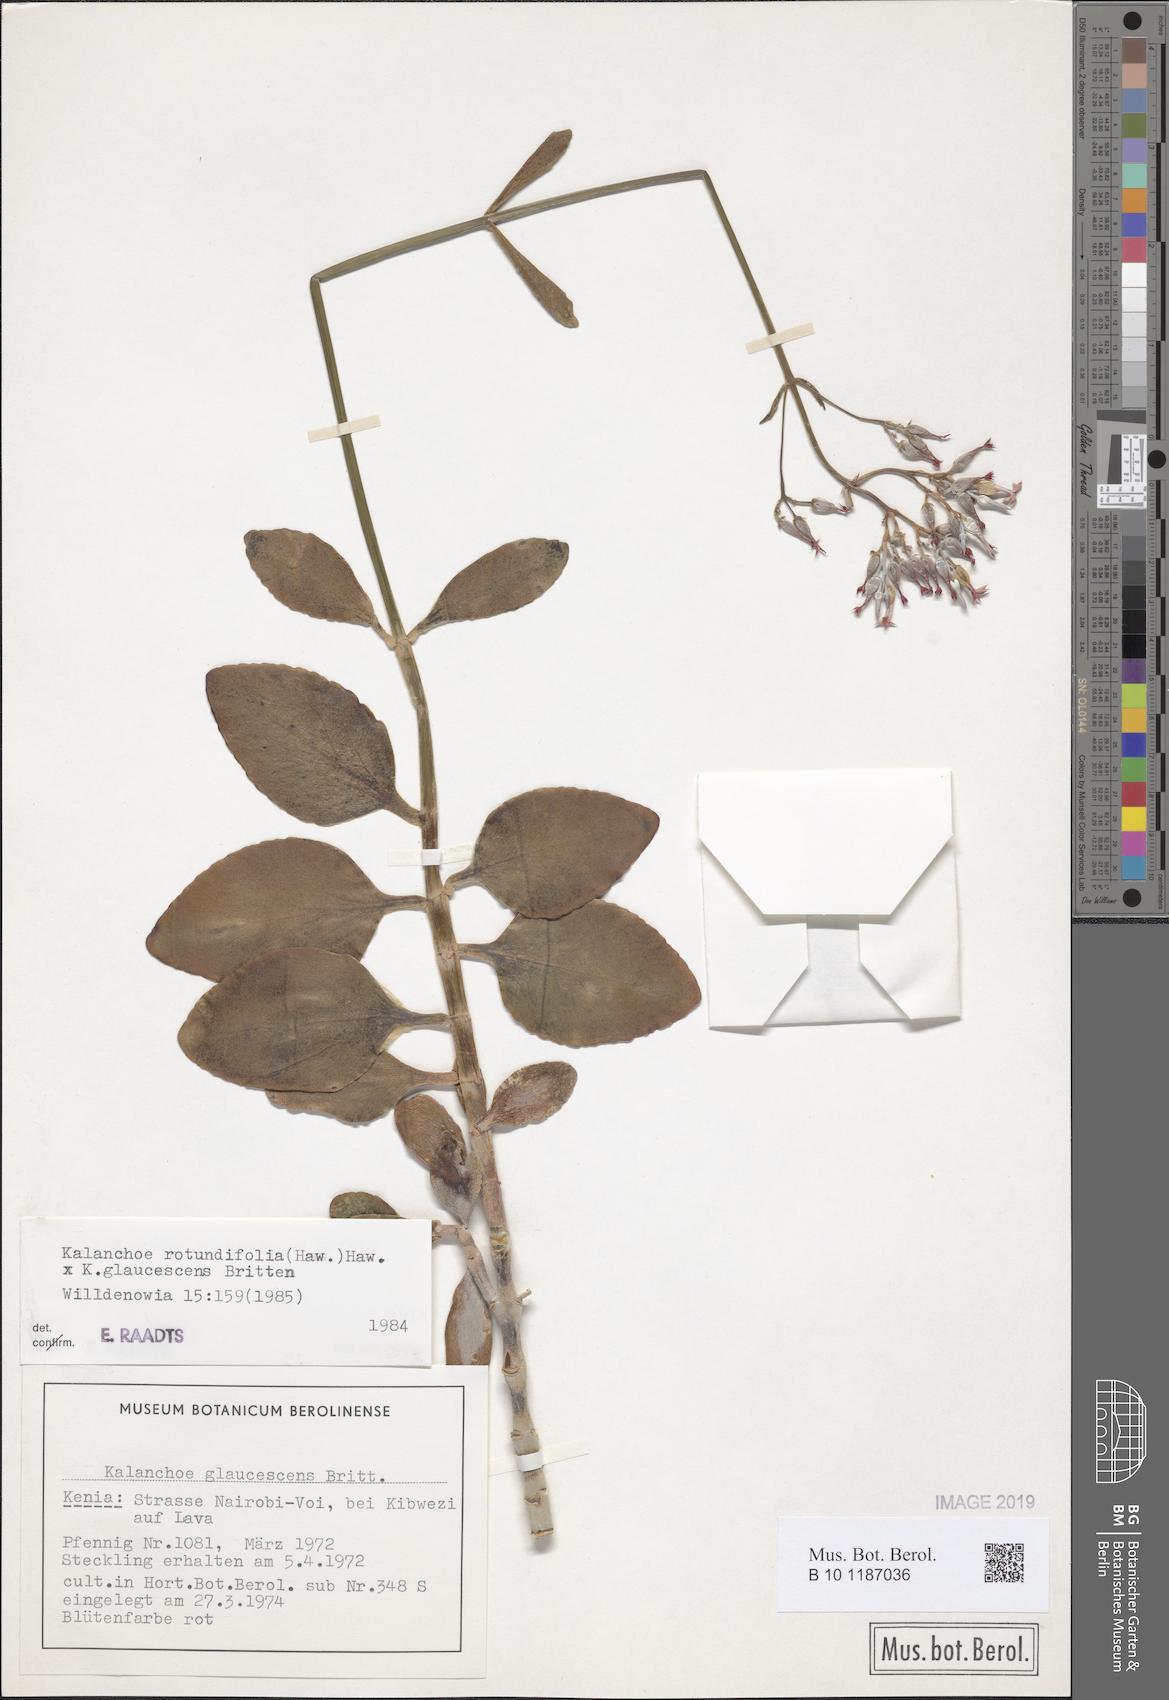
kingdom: Plantae
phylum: Tracheophyta
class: Magnoliopsida
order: Saxifragales
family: Crassulaceae
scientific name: Crassulaceae
